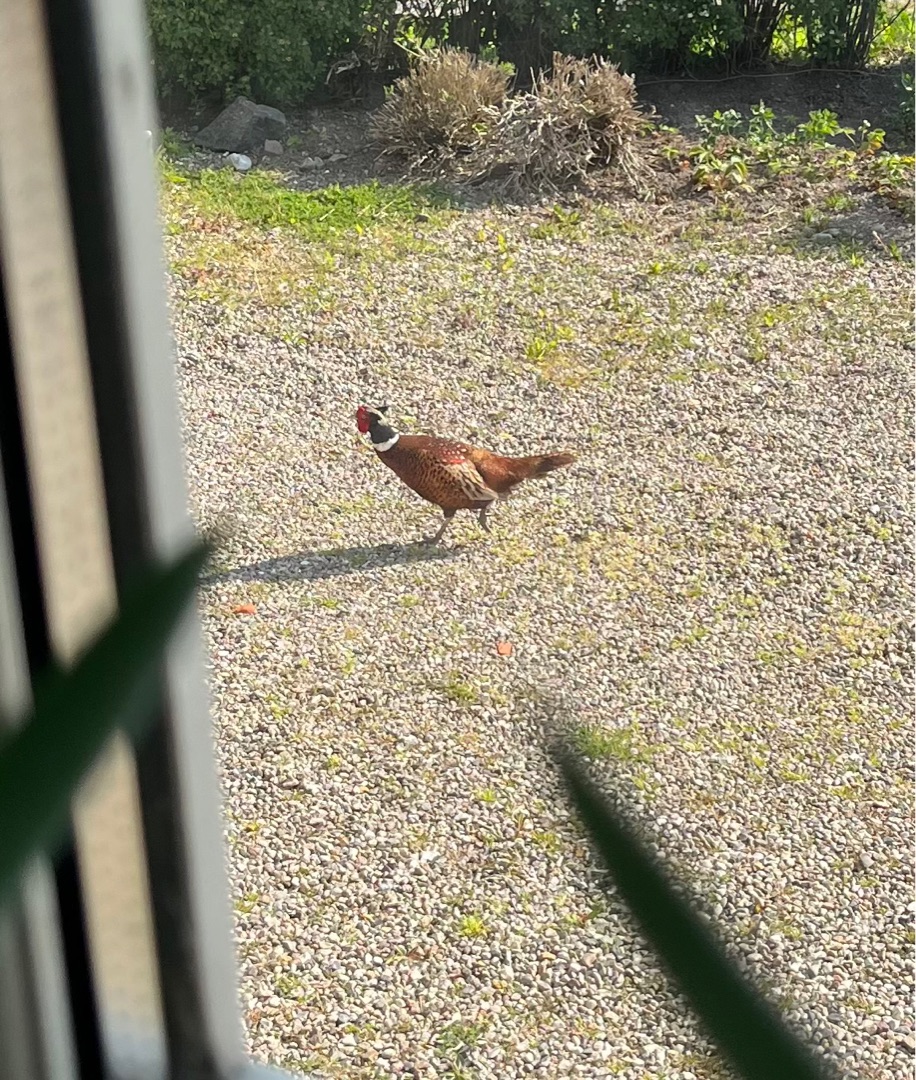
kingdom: Animalia
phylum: Chordata
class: Aves
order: Galliformes
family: Phasianidae
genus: Phasianus
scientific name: Phasianus colchicus
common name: Fasan
